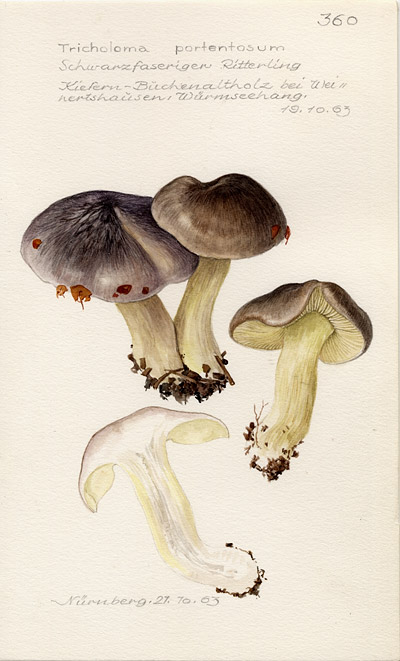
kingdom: Fungi
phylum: Basidiomycota
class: Agaricomycetes
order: Agaricales
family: Tricholomataceae
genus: Tricholoma
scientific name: Tricholoma portentosum
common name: Coalman
